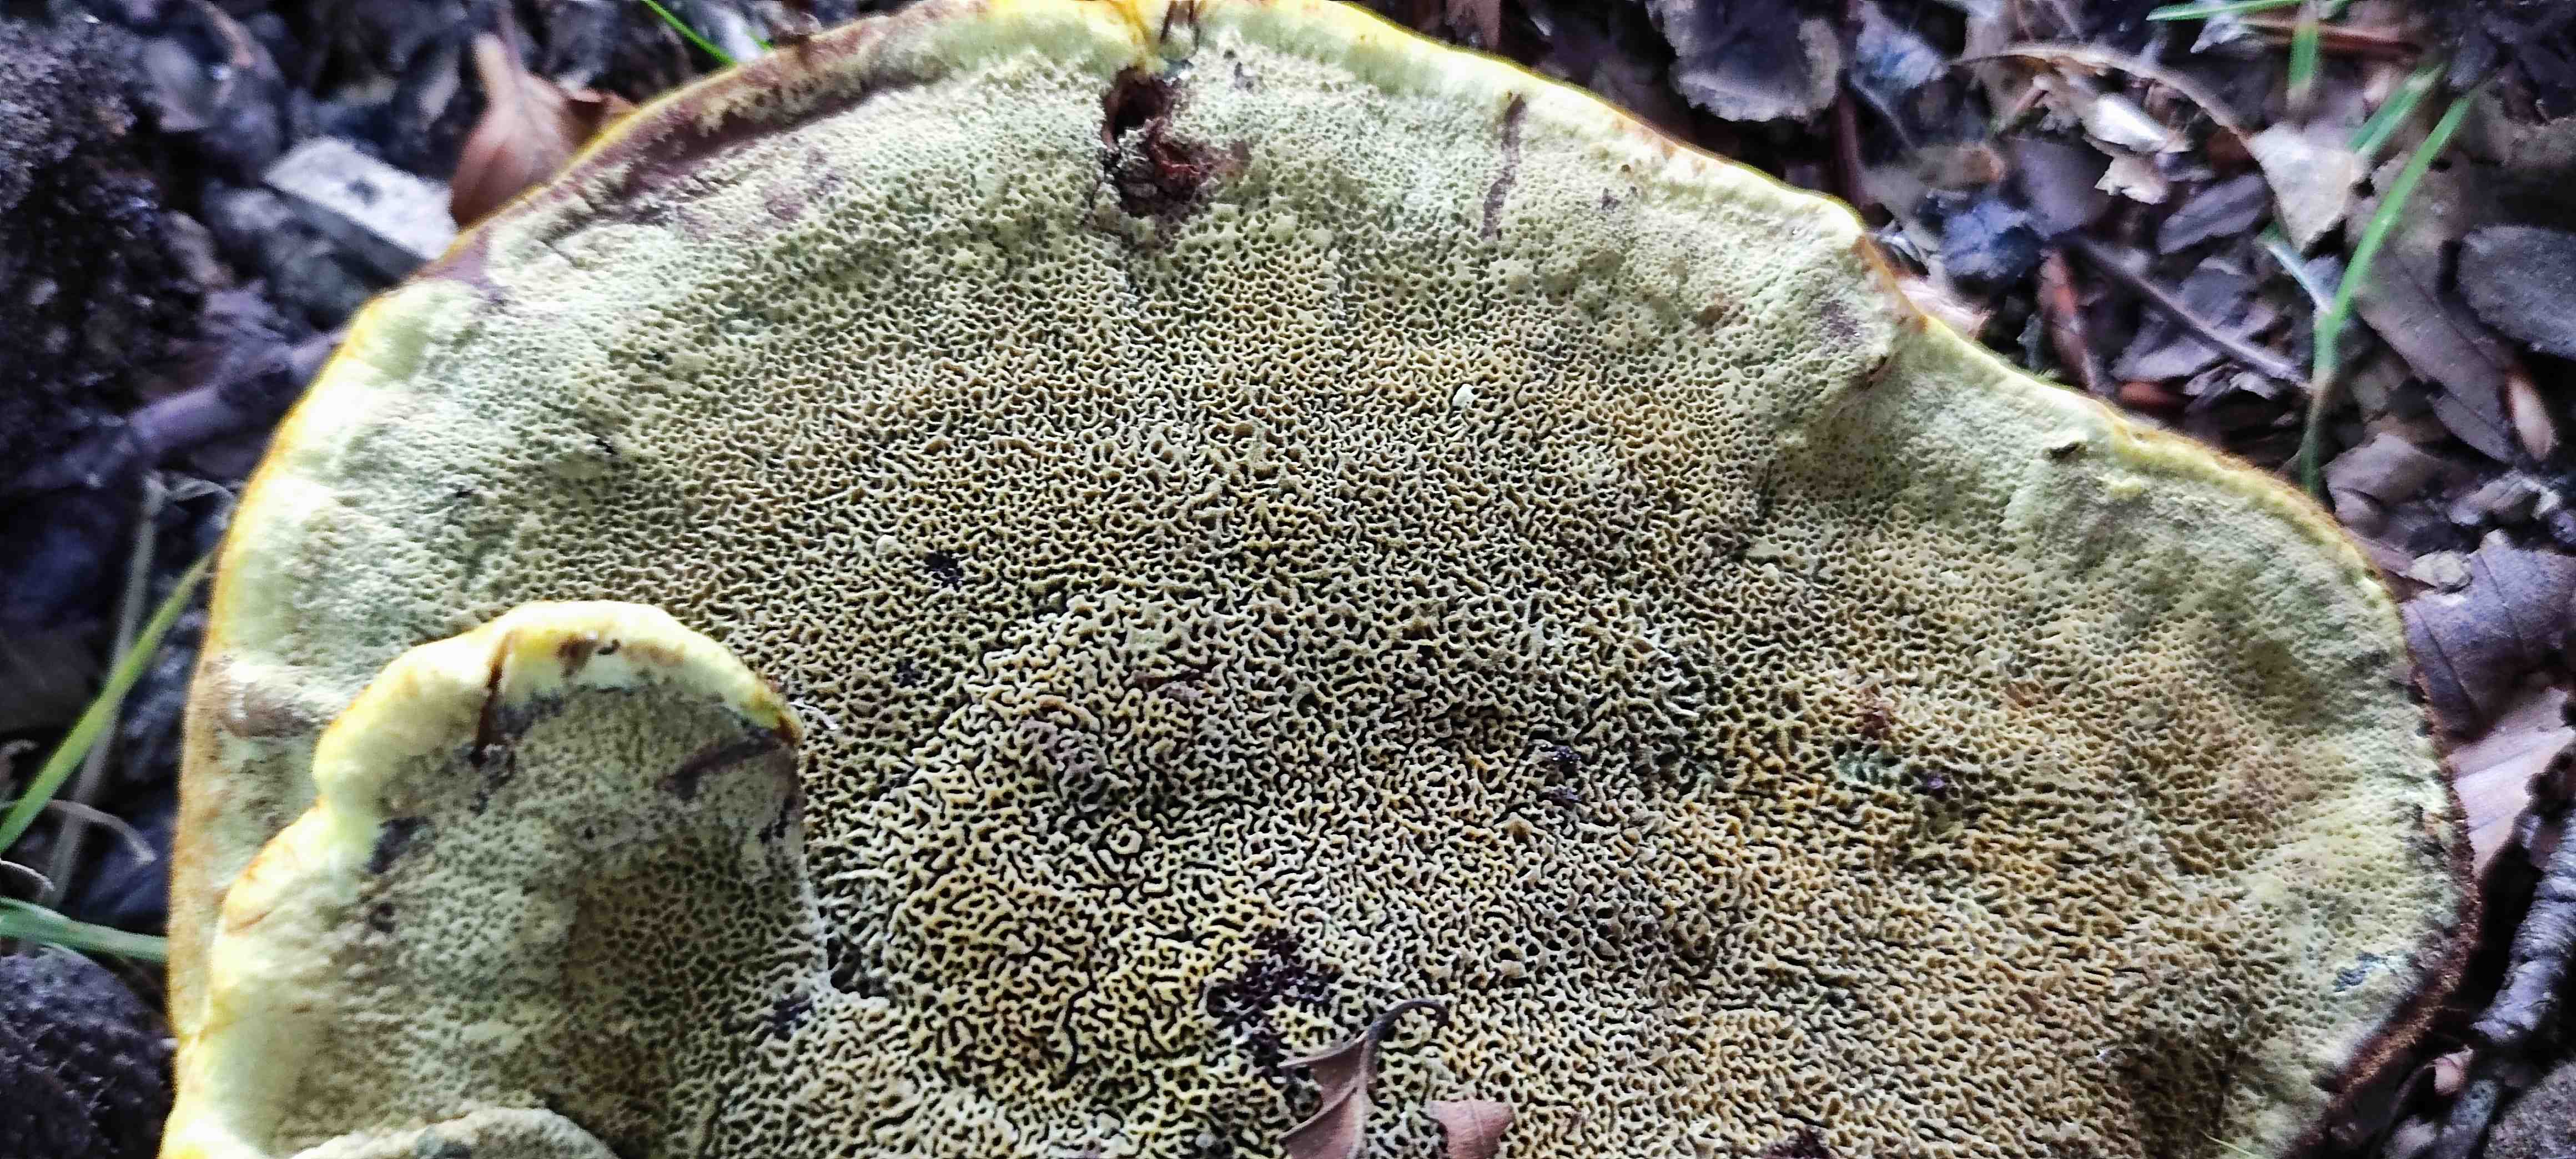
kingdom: Fungi
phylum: Basidiomycota
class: Agaricomycetes
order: Polyporales
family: Laetiporaceae
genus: Phaeolus
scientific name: Phaeolus schweinitzii
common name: brunporesvamp
